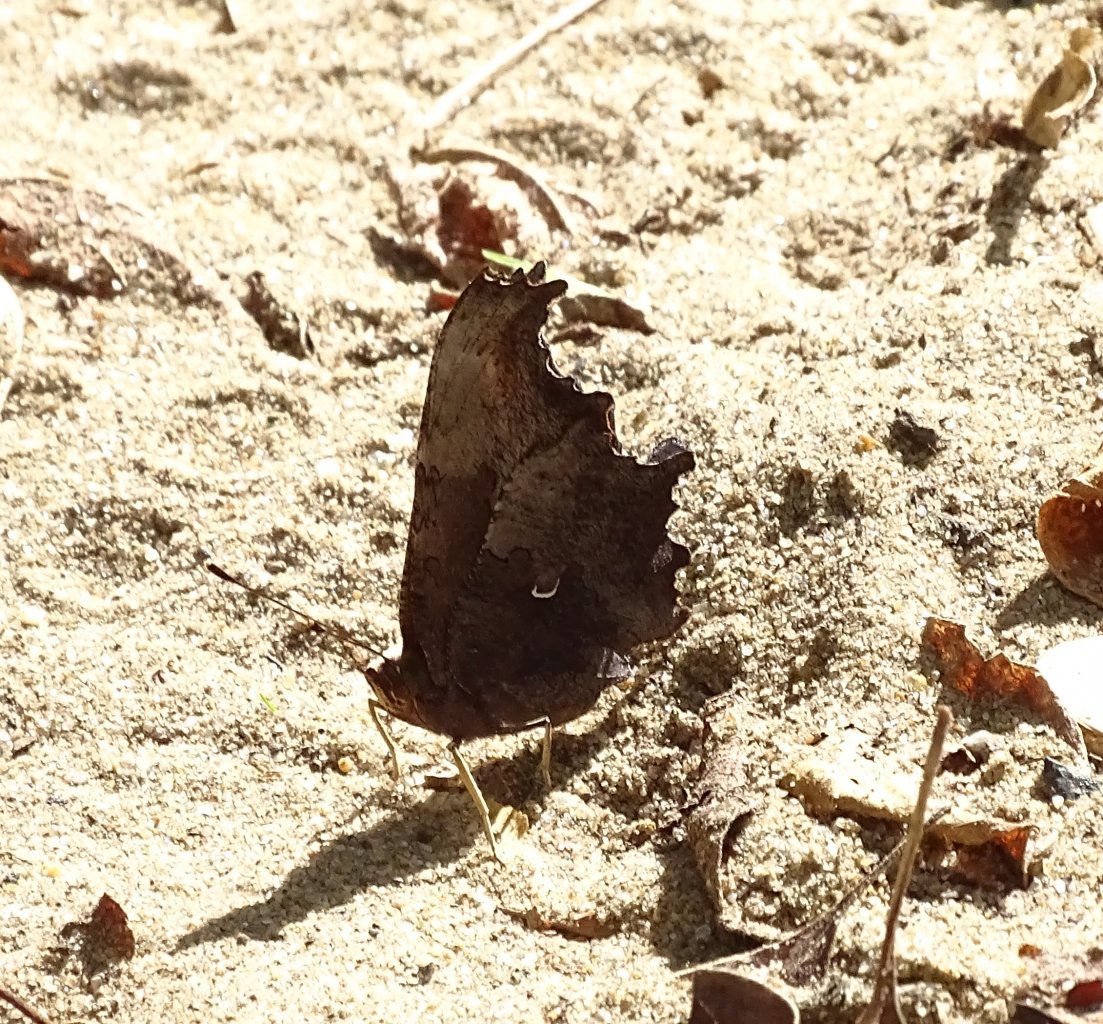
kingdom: Animalia
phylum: Arthropoda
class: Insecta
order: Lepidoptera
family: Nymphalidae
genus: Polygonia
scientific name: Polygonia comma
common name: Eastern Comma
